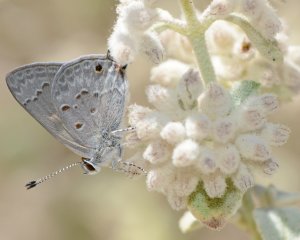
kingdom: Animalia
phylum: Arthropoda
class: Insecta
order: Lepidoptera
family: Lycaenidae
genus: Callicista
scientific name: Callicista columella
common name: Mallow Scrub-Hairstreak
